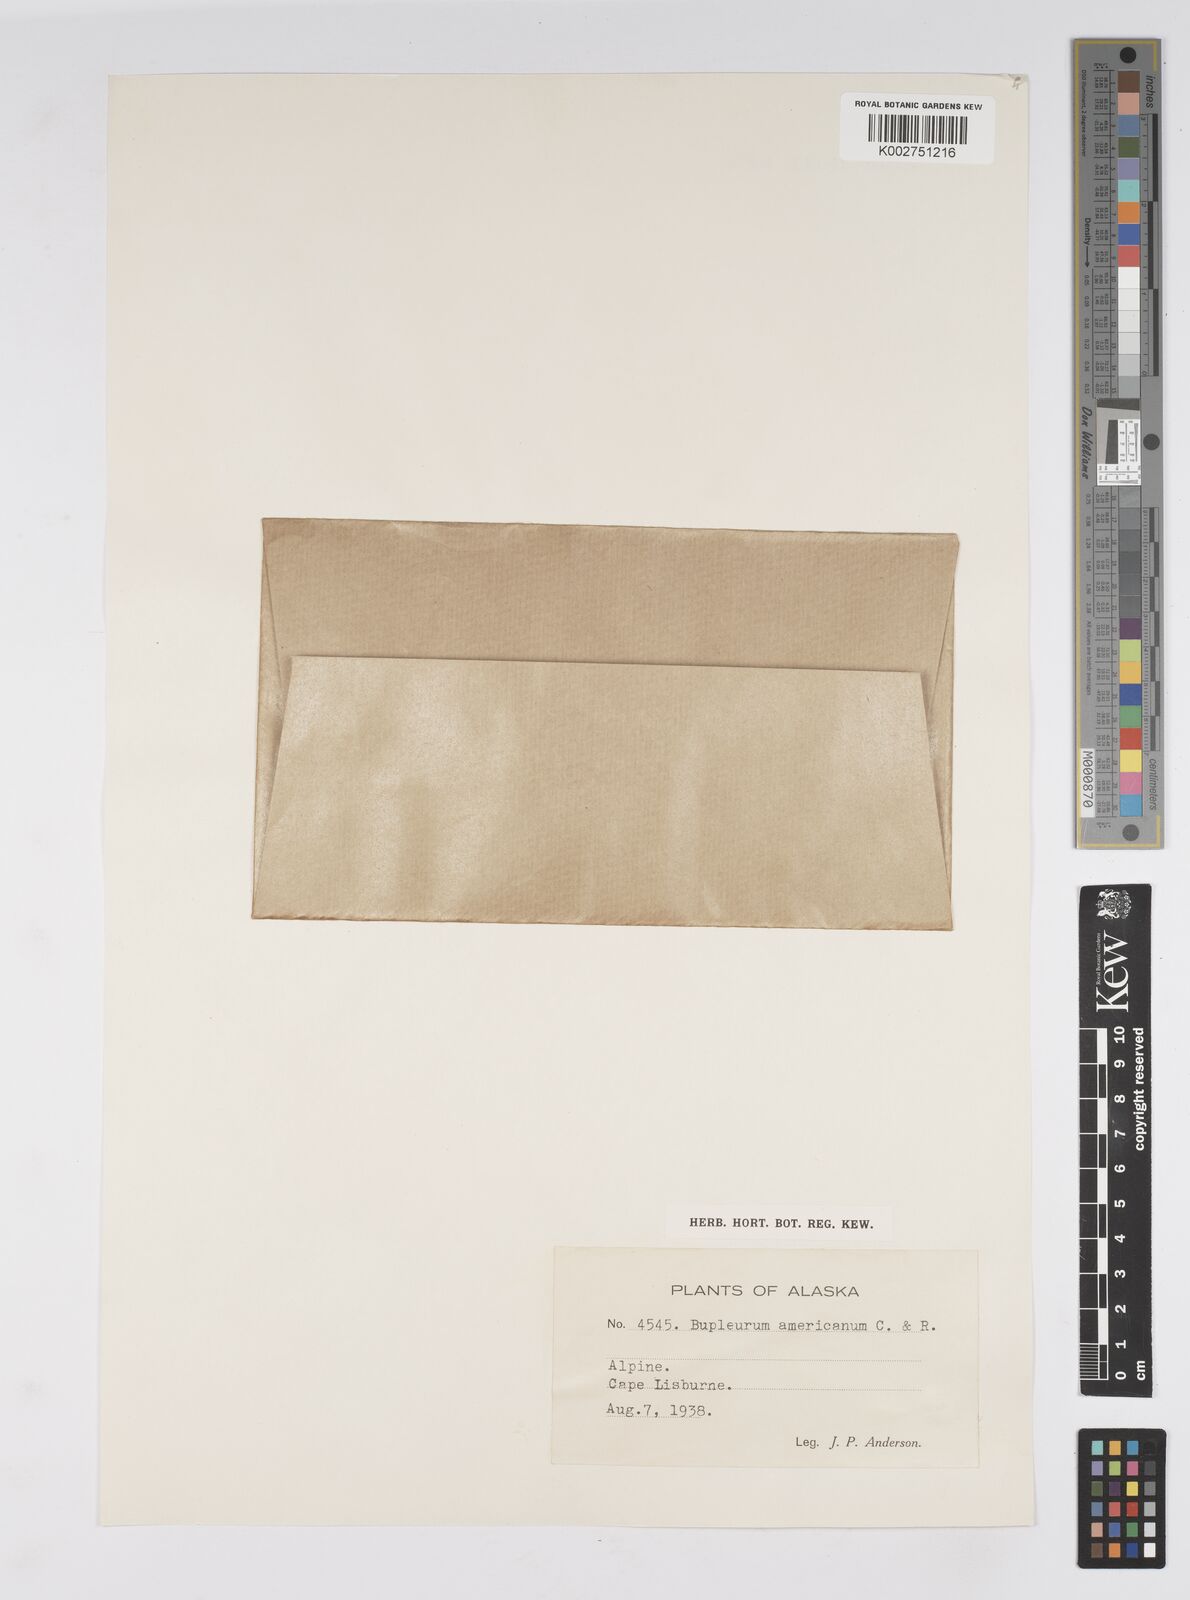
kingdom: Plantae
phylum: Tracheophyta
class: Magnoliopsida
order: Apiales
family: Apiaceae
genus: Bupleurum
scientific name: Bupleurum americanum
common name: American thoroughwax
